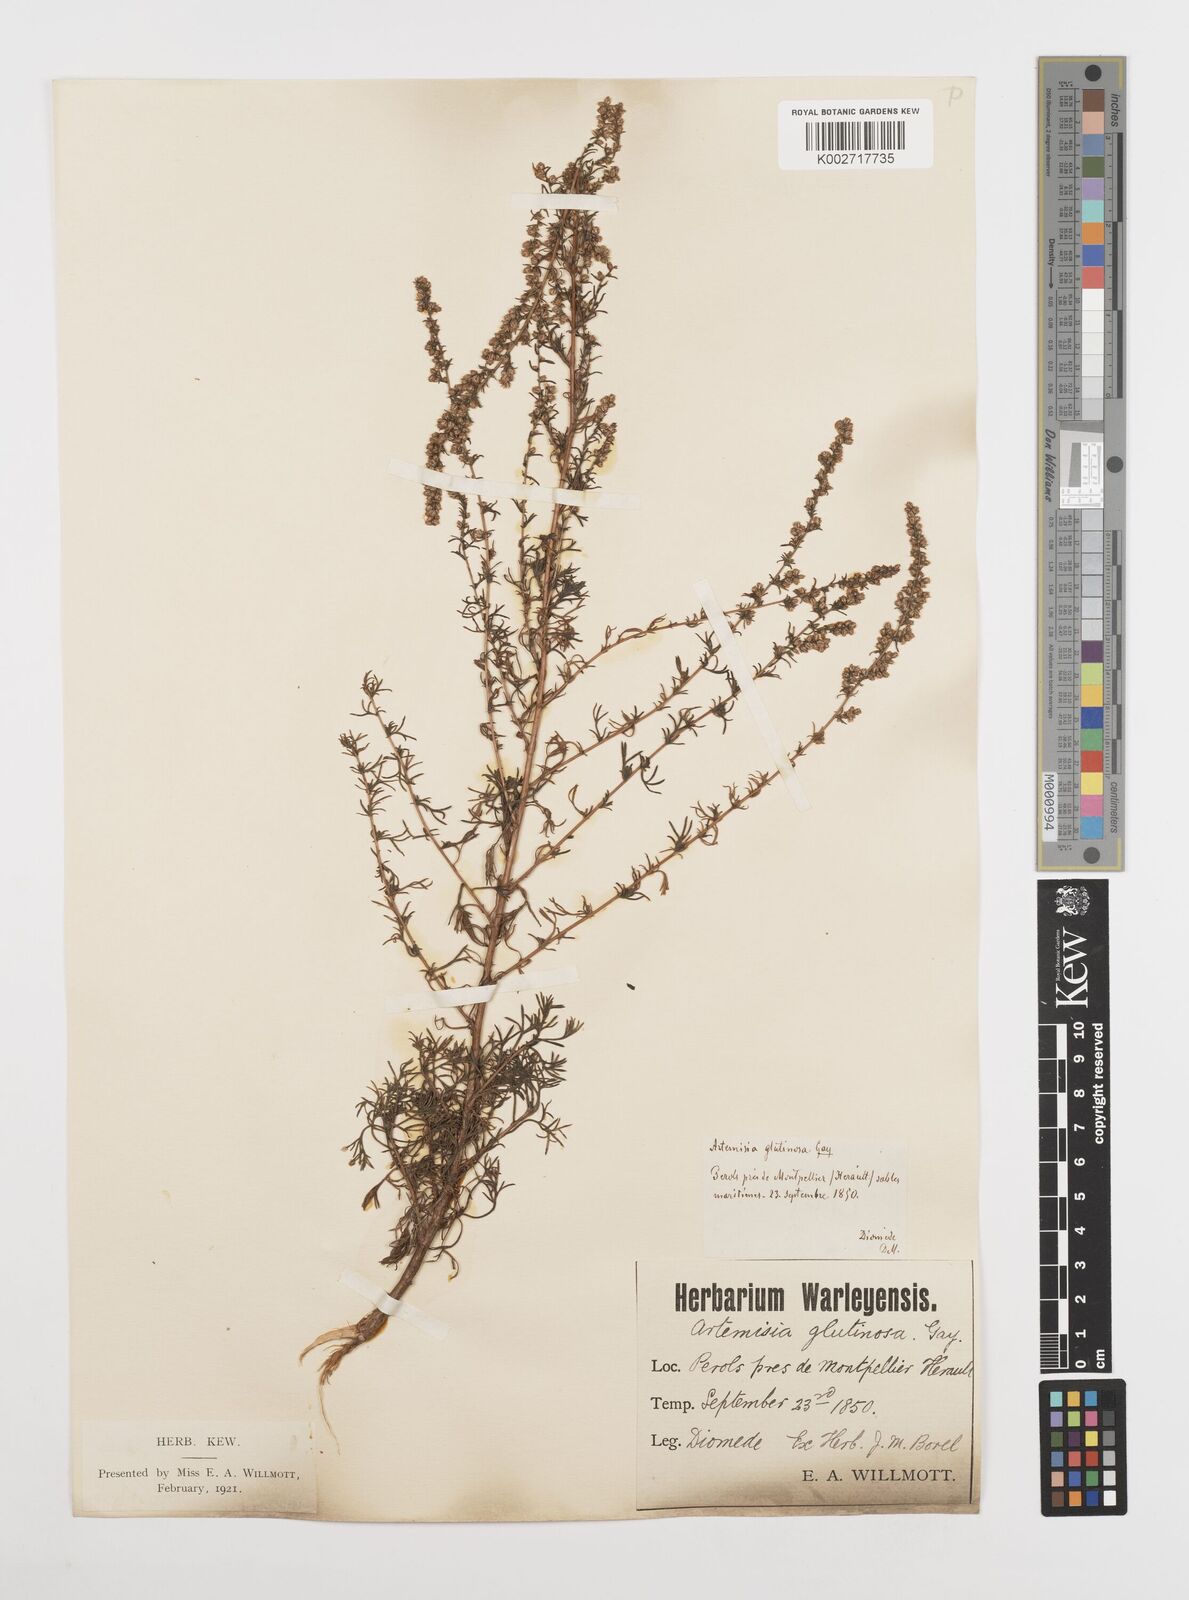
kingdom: Plantae
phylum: Tracheophyta
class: Magnoliopsida
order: Asterales
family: Asteraceae
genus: Artemisia
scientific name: Artemisia campestris
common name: Field wormwood
